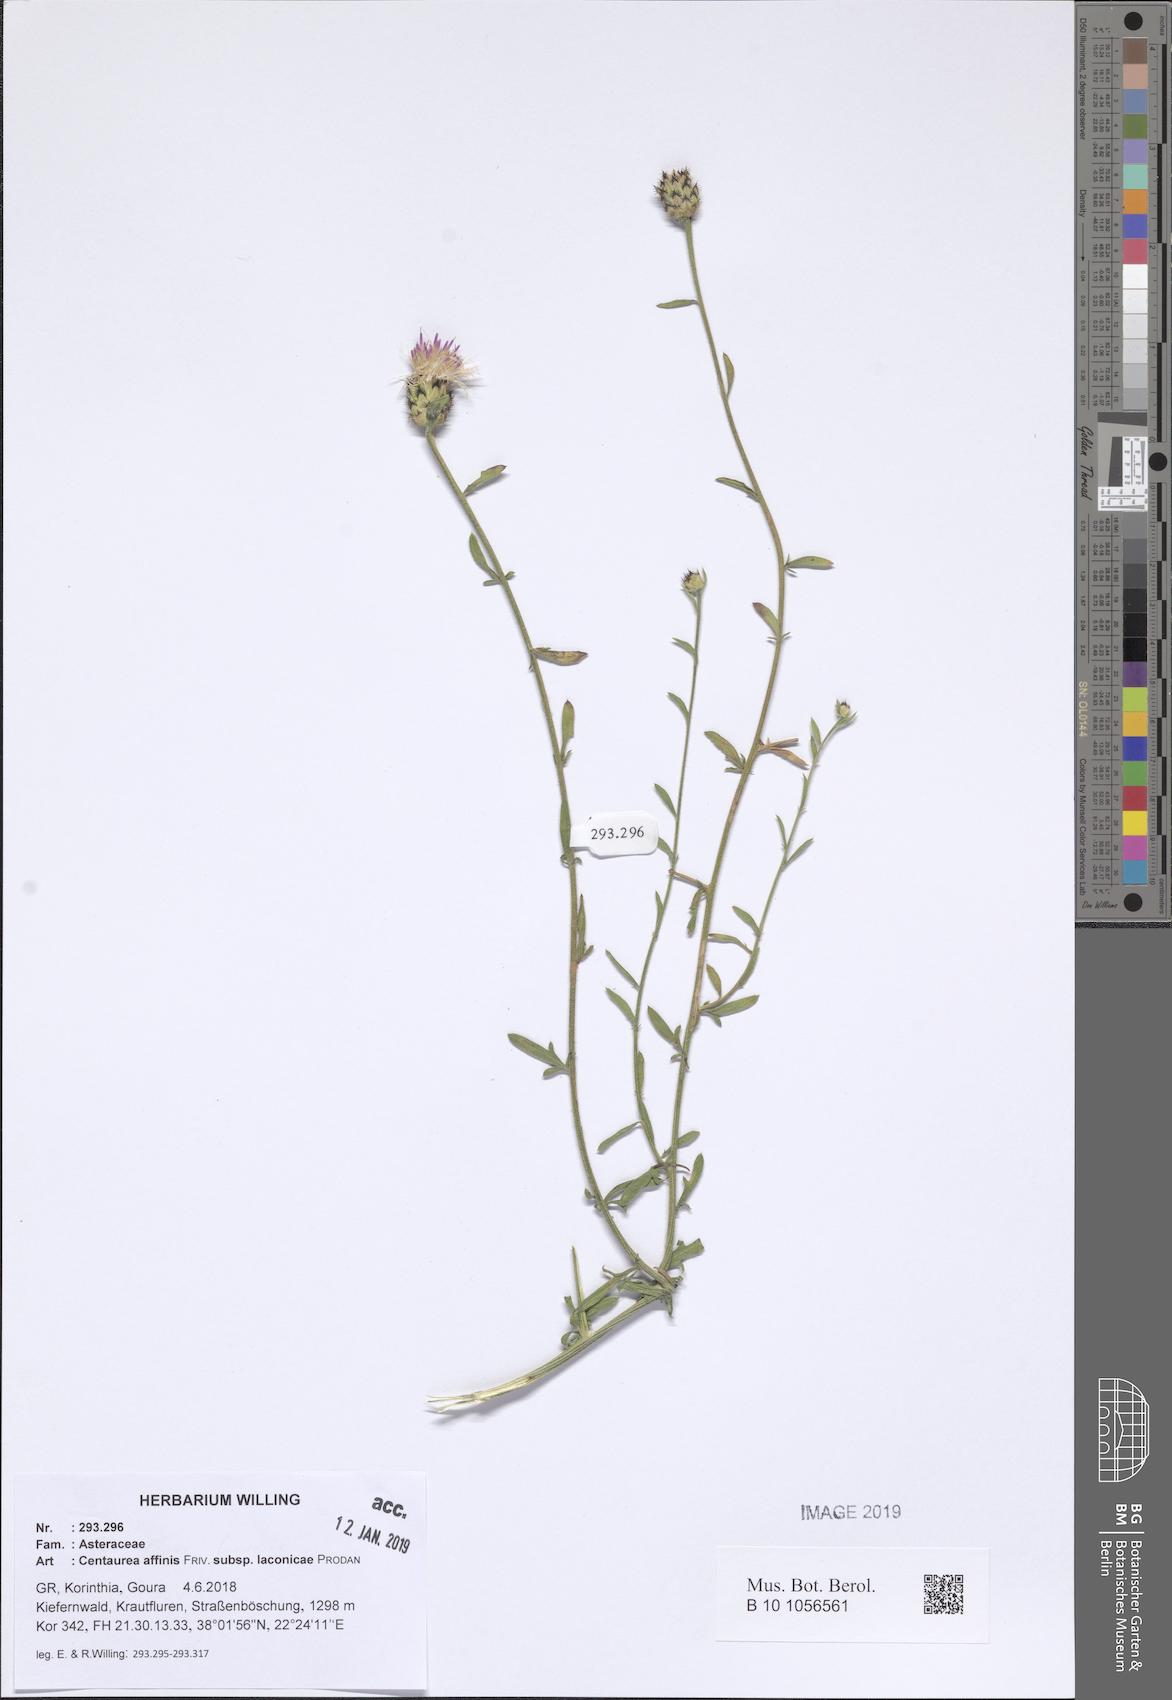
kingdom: Plantae
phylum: Tracheophyta
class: Magnoliopsida
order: Asterales
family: Asteraceae
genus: Centaurea
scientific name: Centaurea affinis
